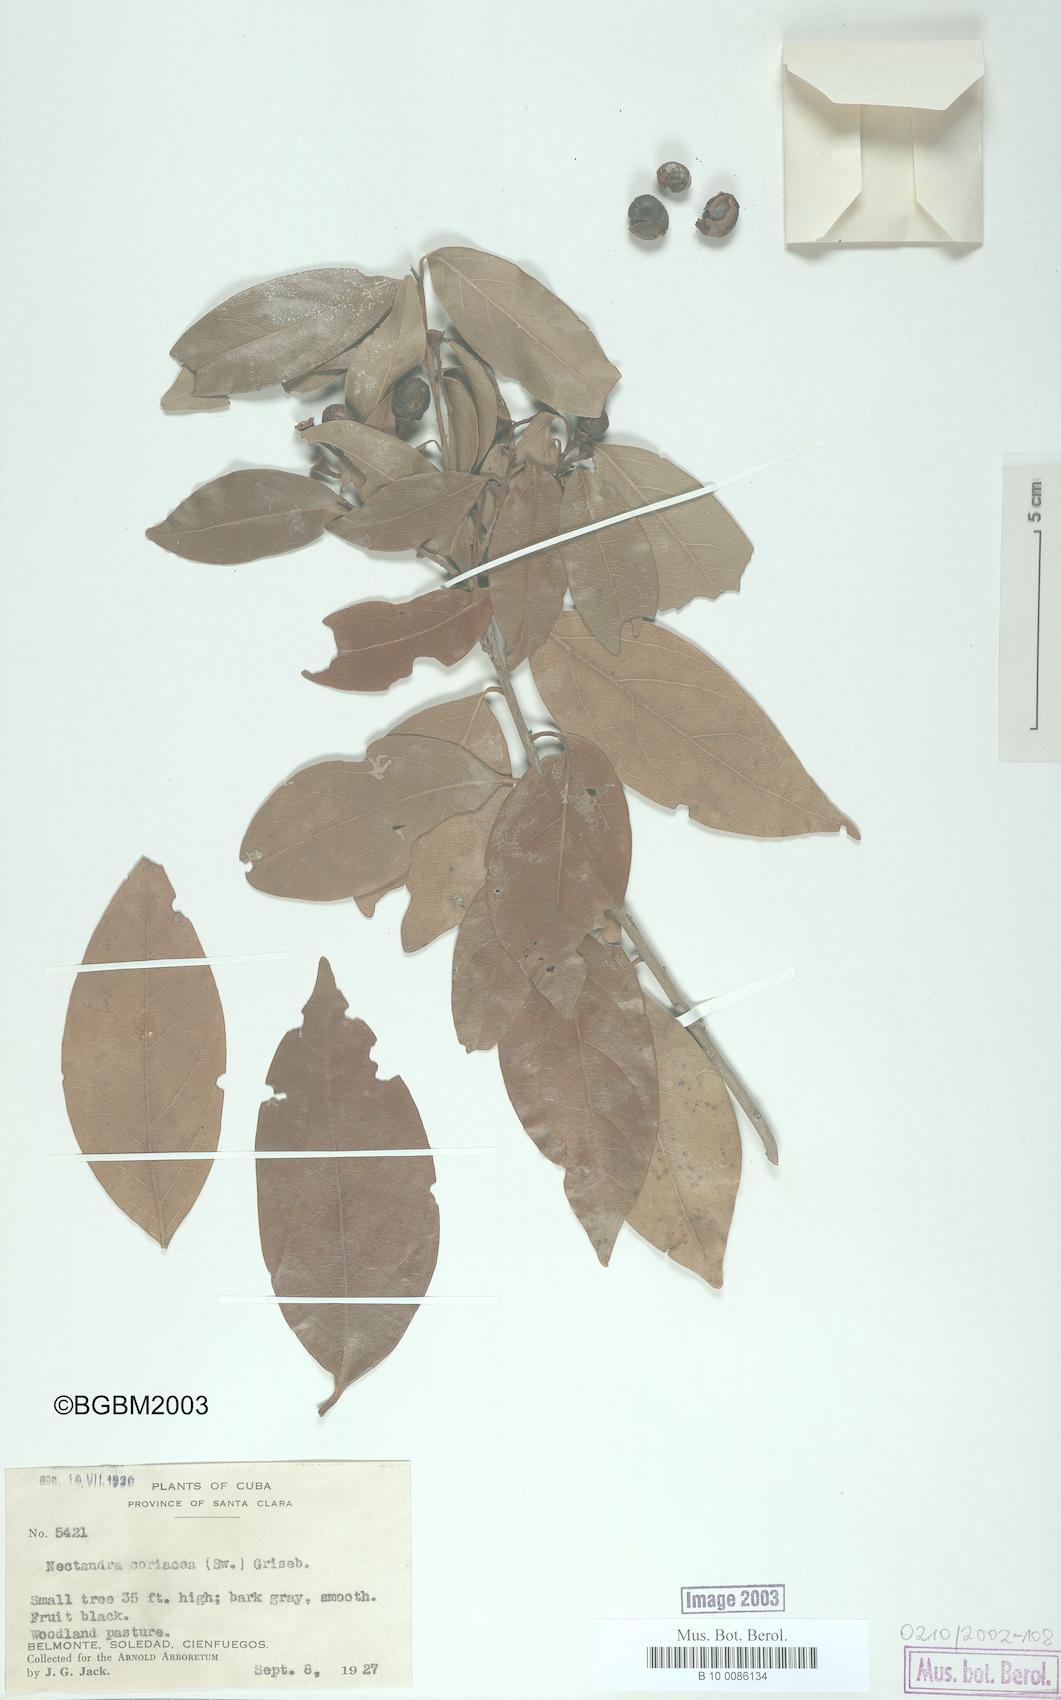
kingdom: Plantae
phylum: Tracheophyta
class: Magnoliopsida
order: Laurales
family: Lauraceae
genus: Damburneya
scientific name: Damburneya coriacea
